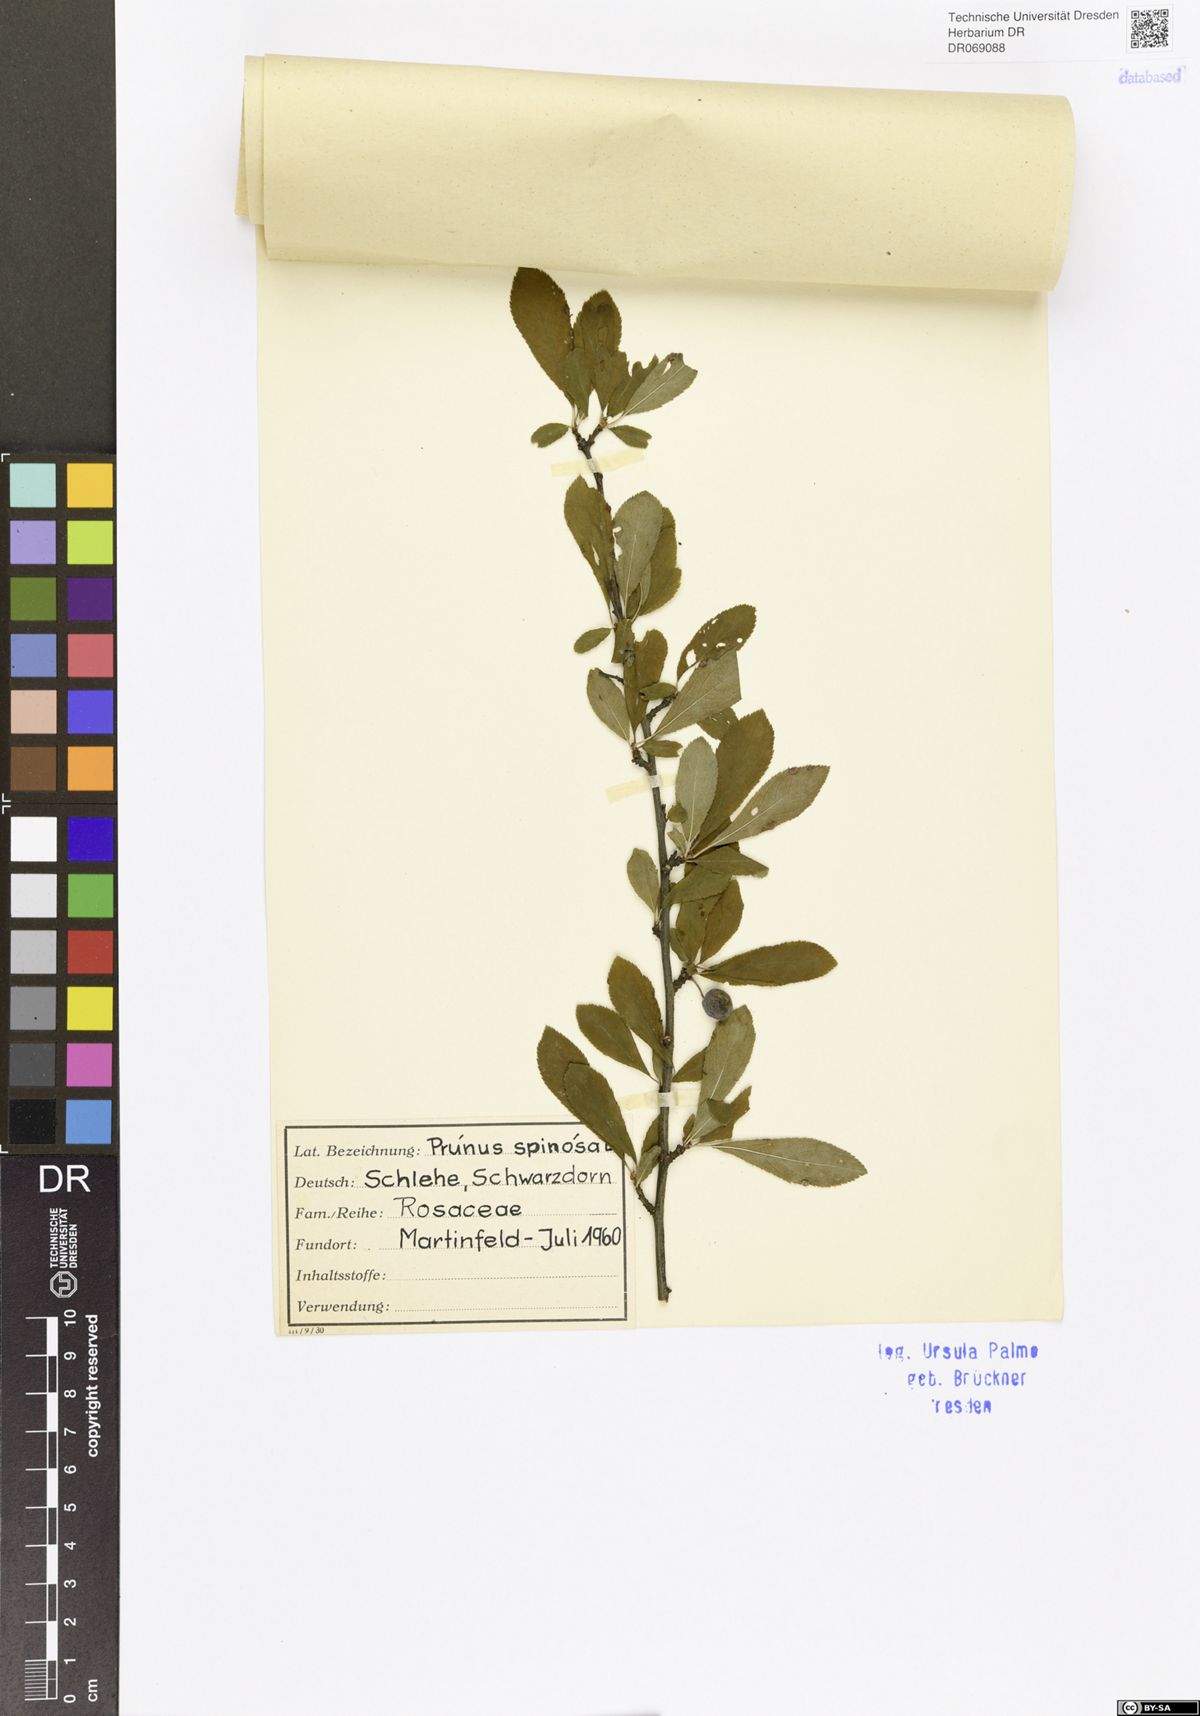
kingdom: Plantae
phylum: Tracheophyta
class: Magnoliopsida
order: Rosales
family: Rosaceae
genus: Prunus
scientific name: Prunus spinosa
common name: Blackthorn
